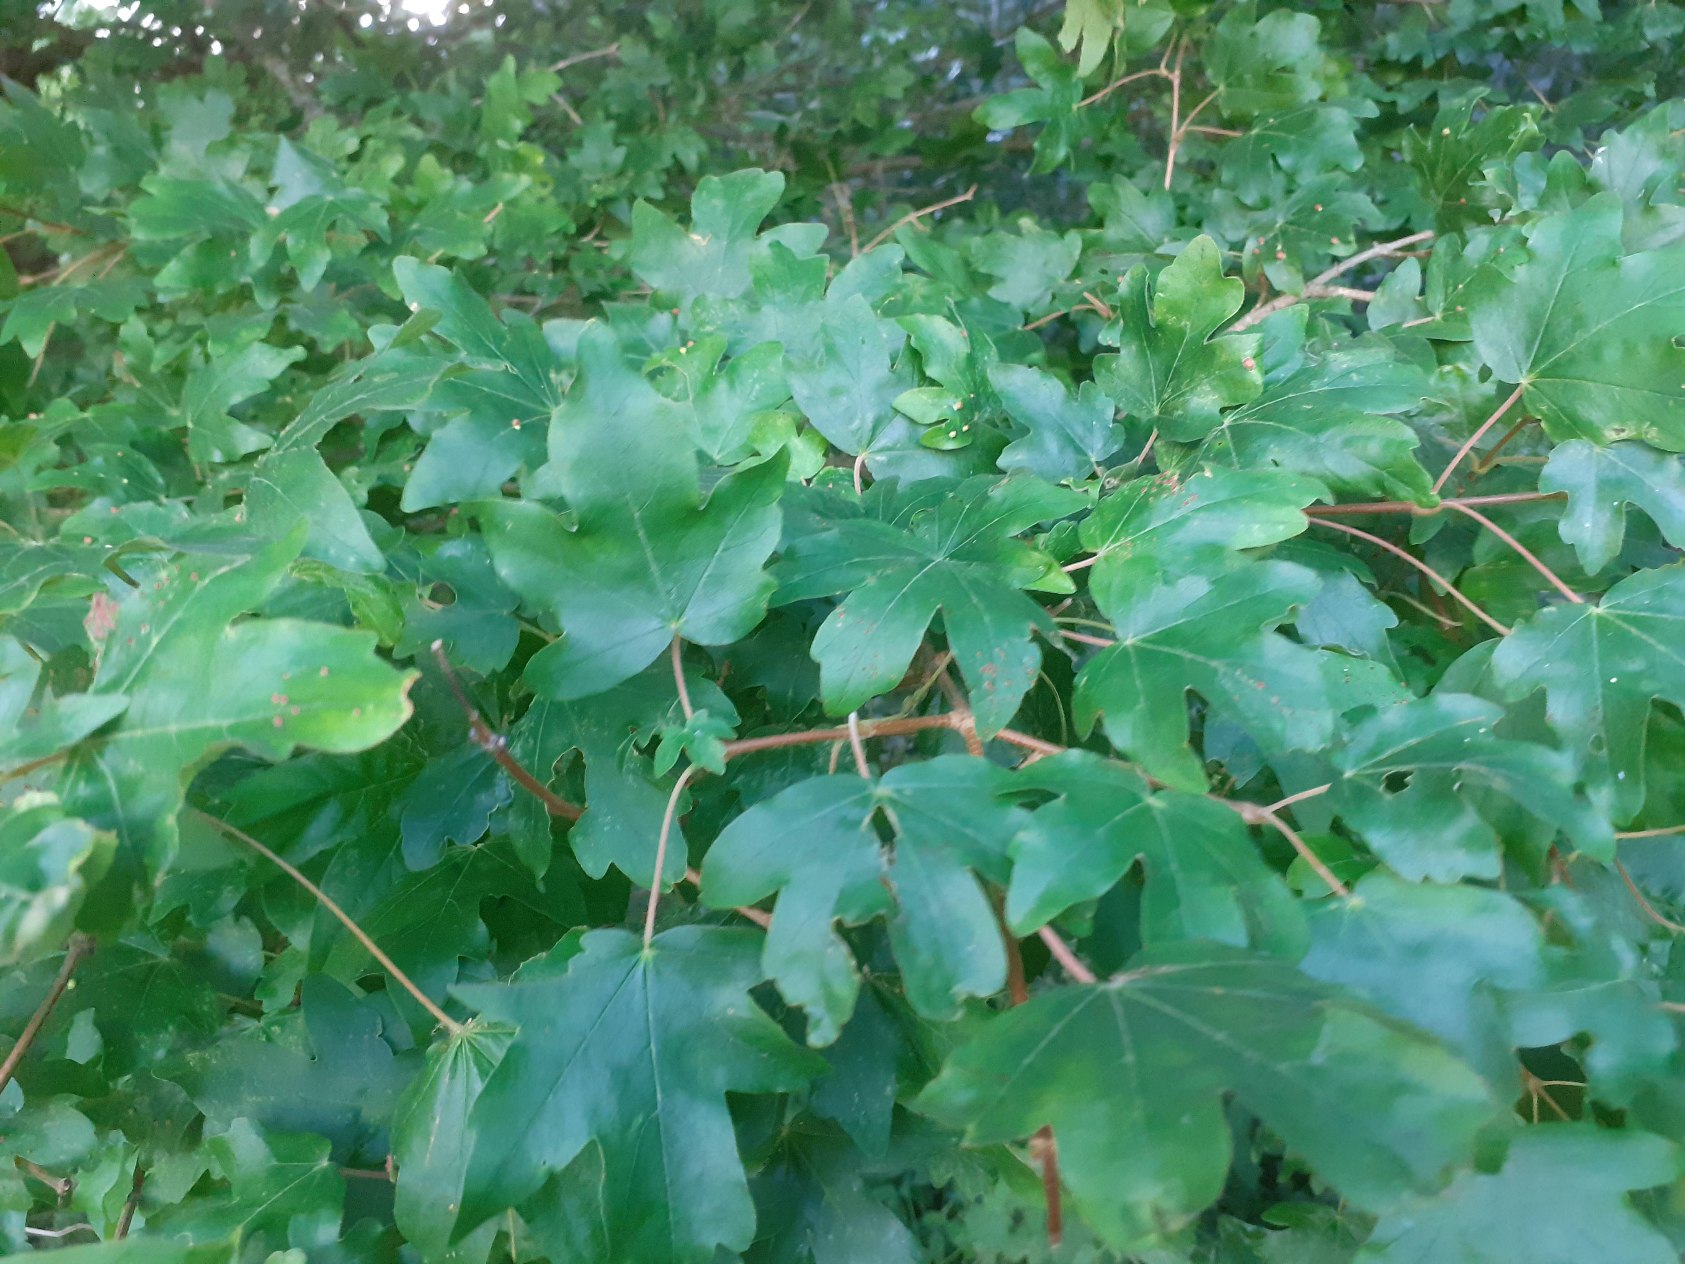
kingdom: Plantae
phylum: Tracheophyta
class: Magnoliopsida
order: Sapindales
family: Sapindaceae
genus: Acer
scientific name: Acer campestre
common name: Navr
